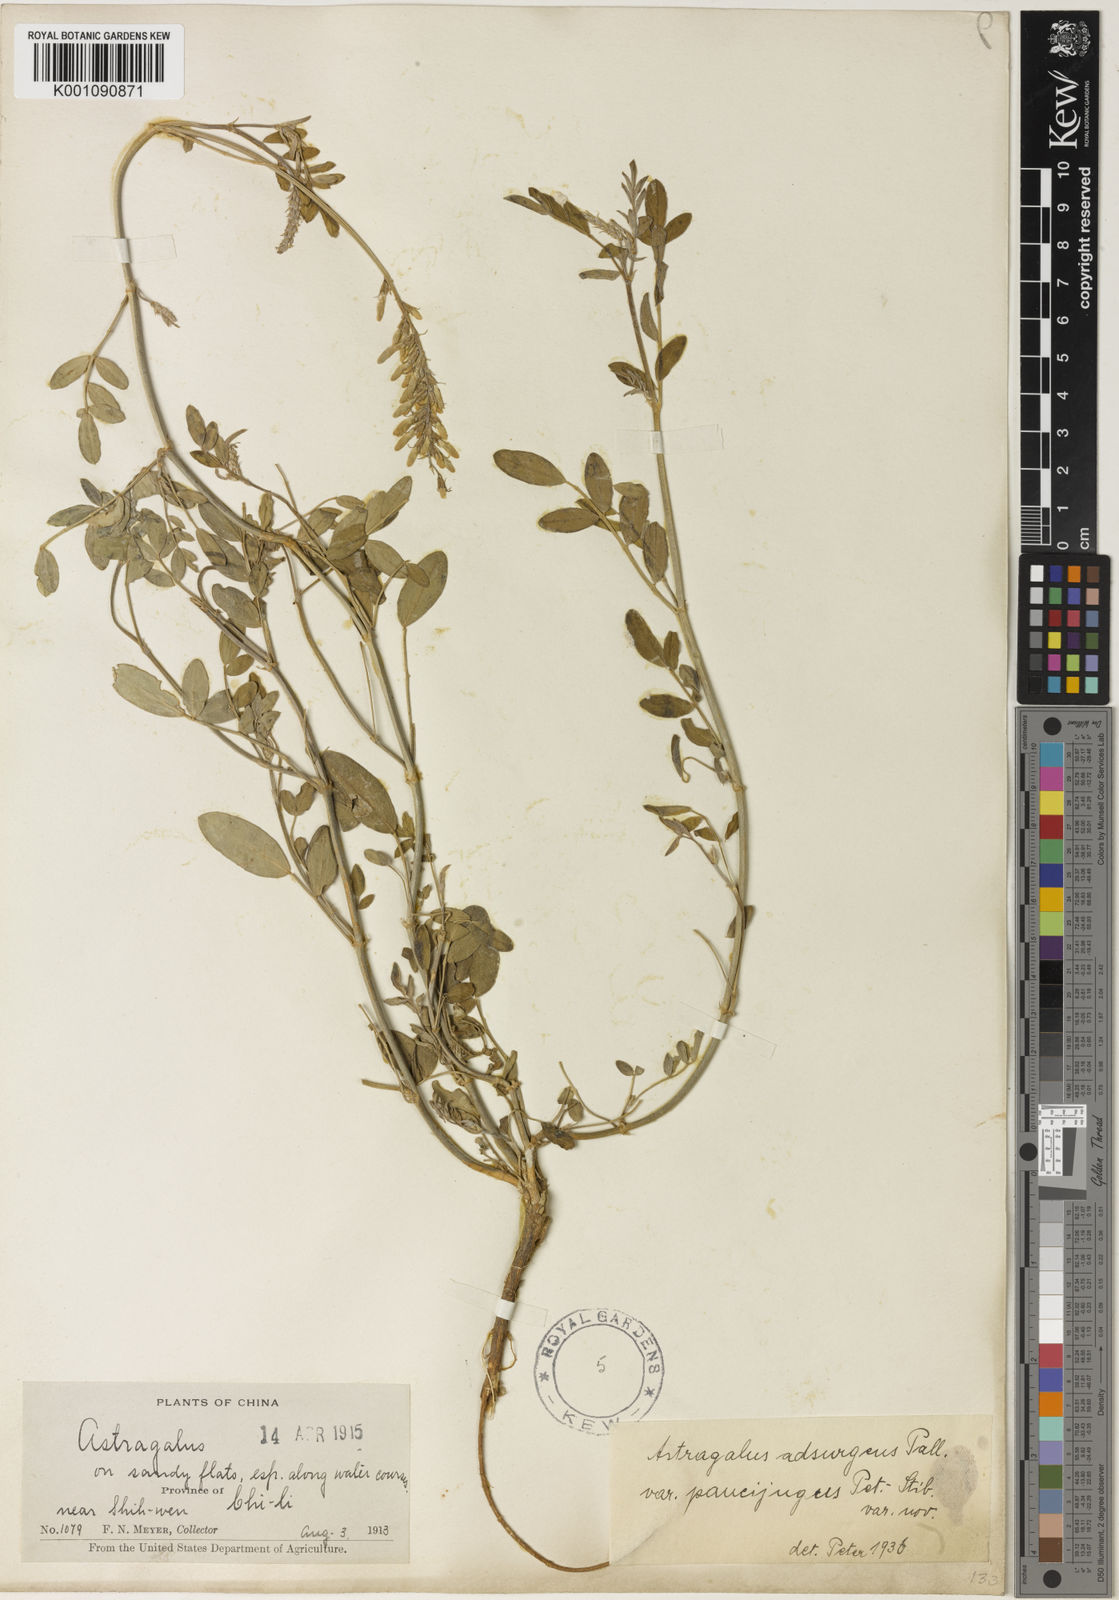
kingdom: Plantae
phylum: Tracheophyta
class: Magnoliopsida
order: Fabales
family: Fabaceae
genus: Astragalus
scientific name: Astragalus
